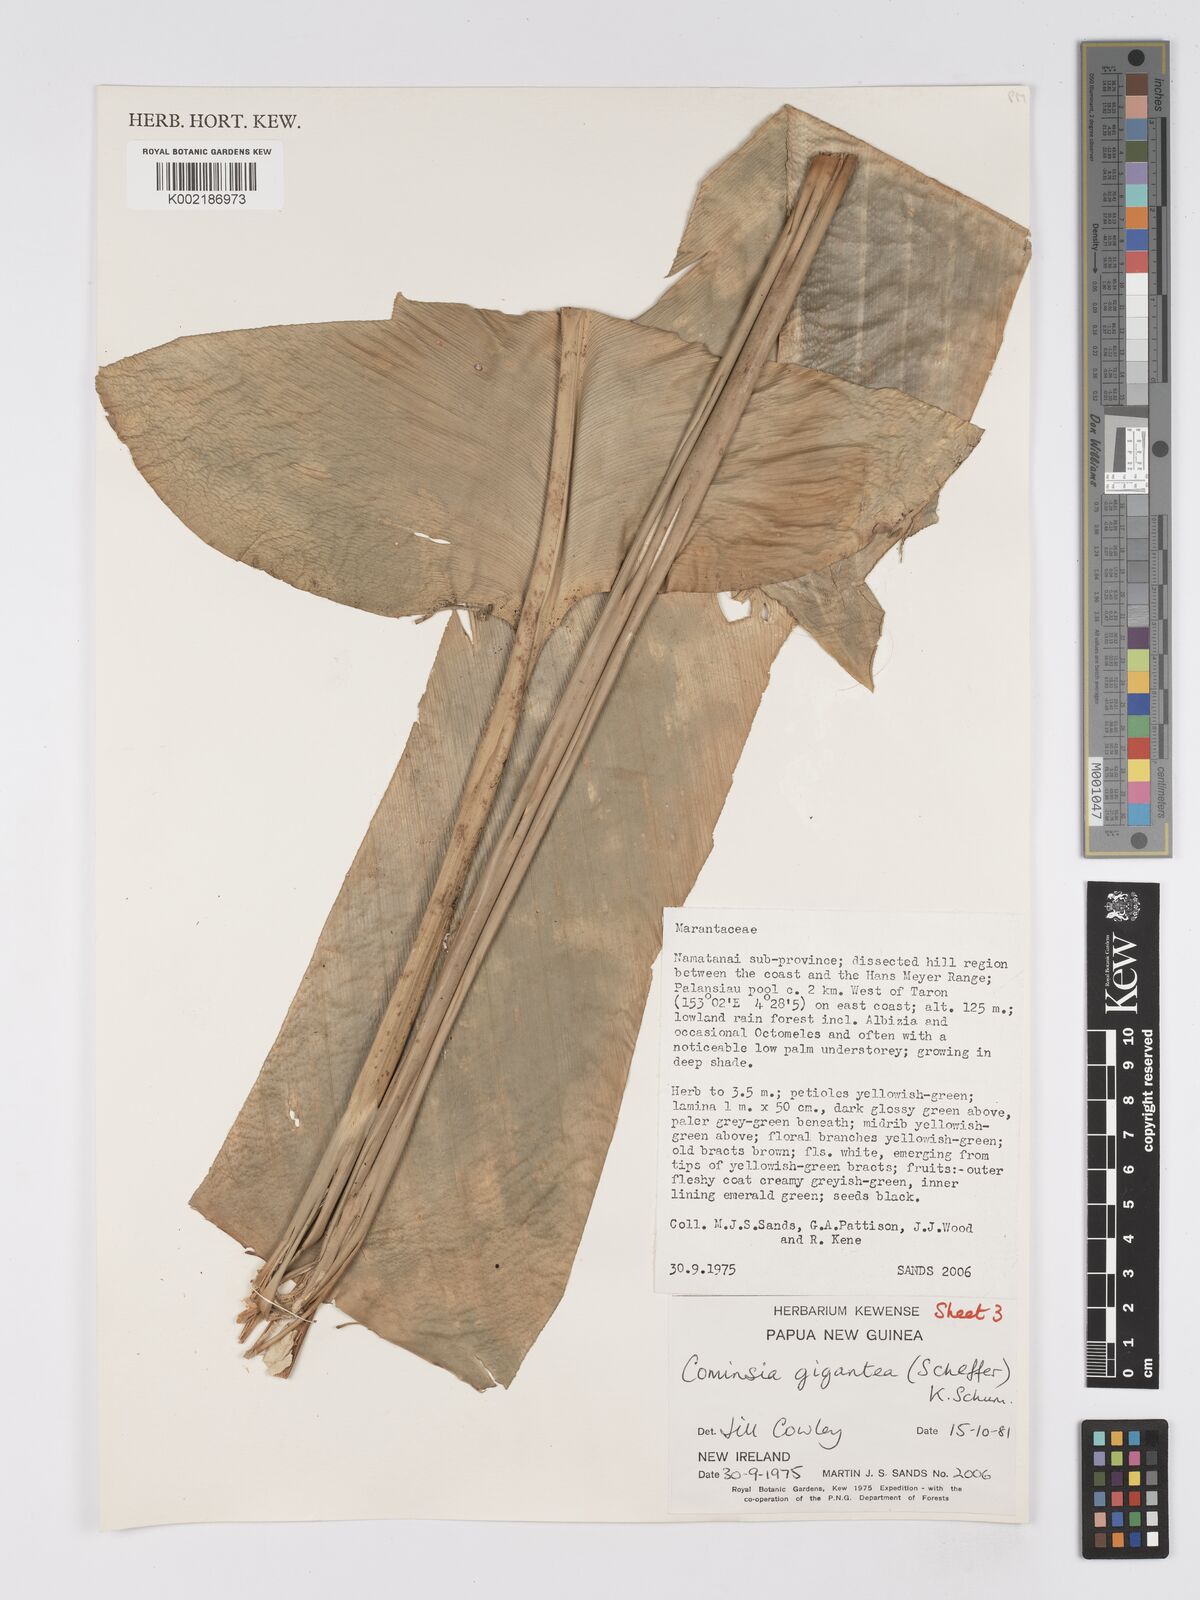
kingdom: Plantae
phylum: Tracheophyta
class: Liliopsida
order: Zingiberales
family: Marantaceae
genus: Phrynium
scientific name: Phrynium giganteum
